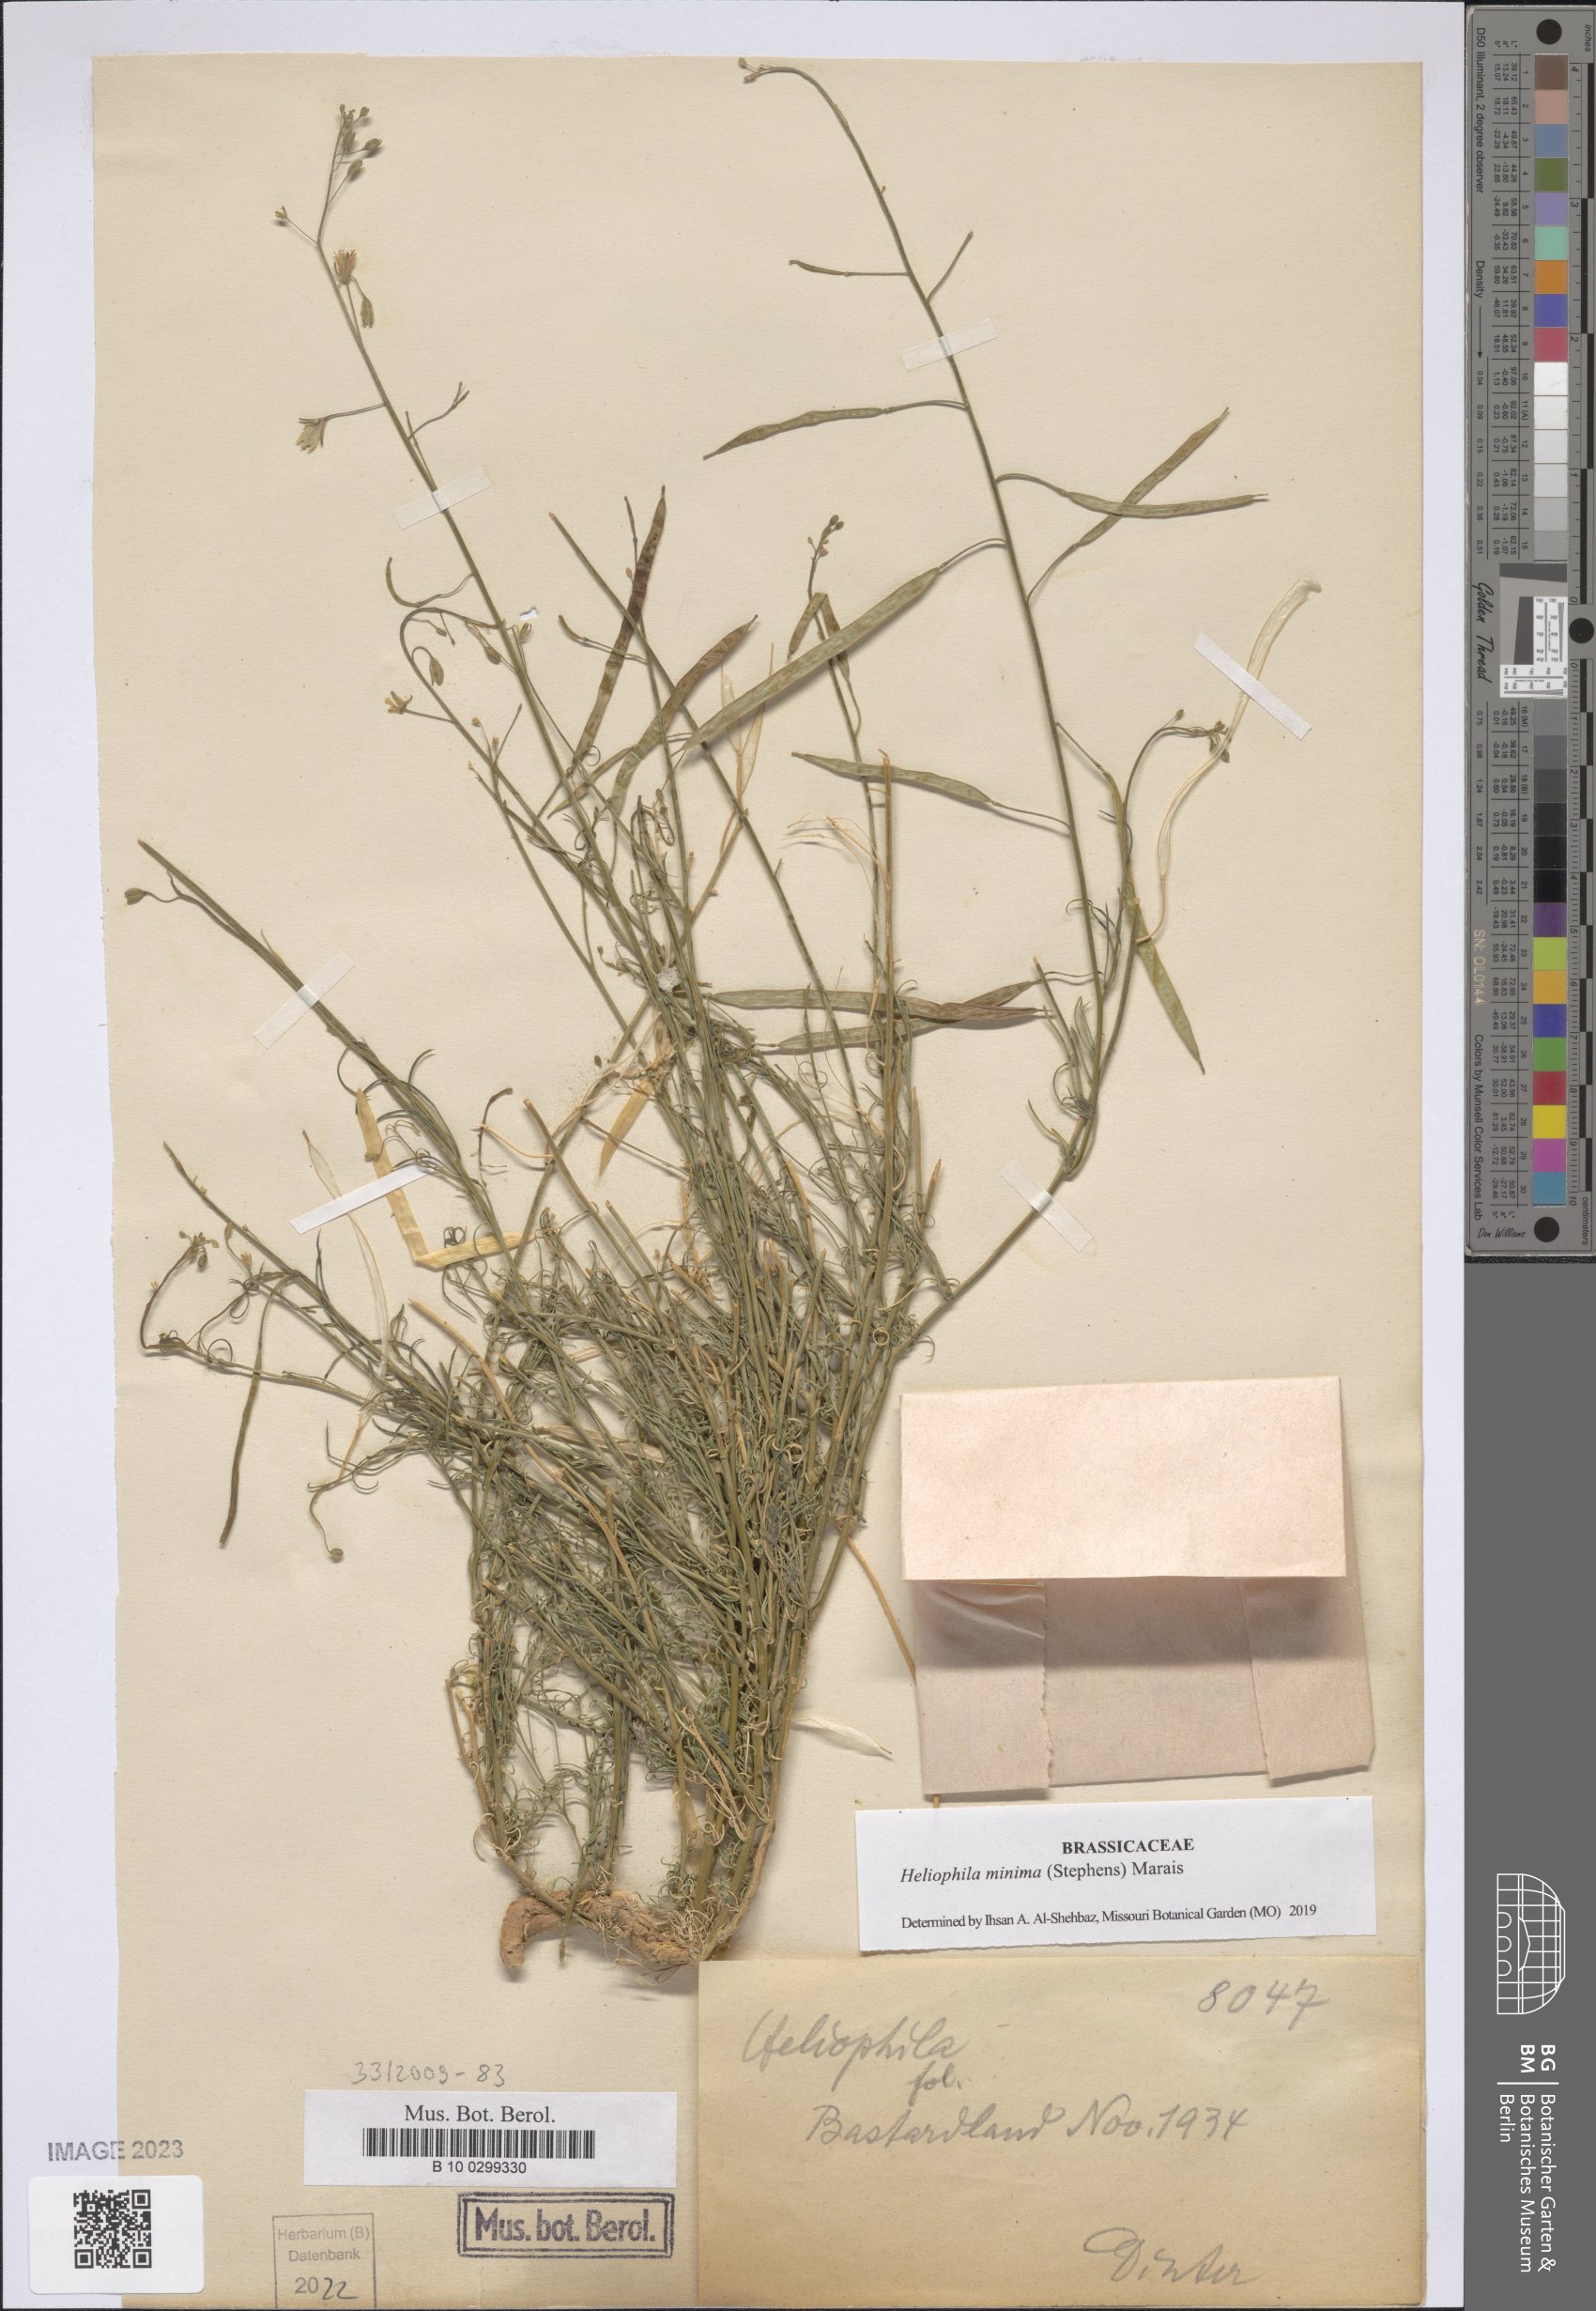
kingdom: Plantae
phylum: Tracheophyta
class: Magnoliopsida
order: Brassicales
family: Brassicaceae
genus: Heliophila
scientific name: Heliophila minima
